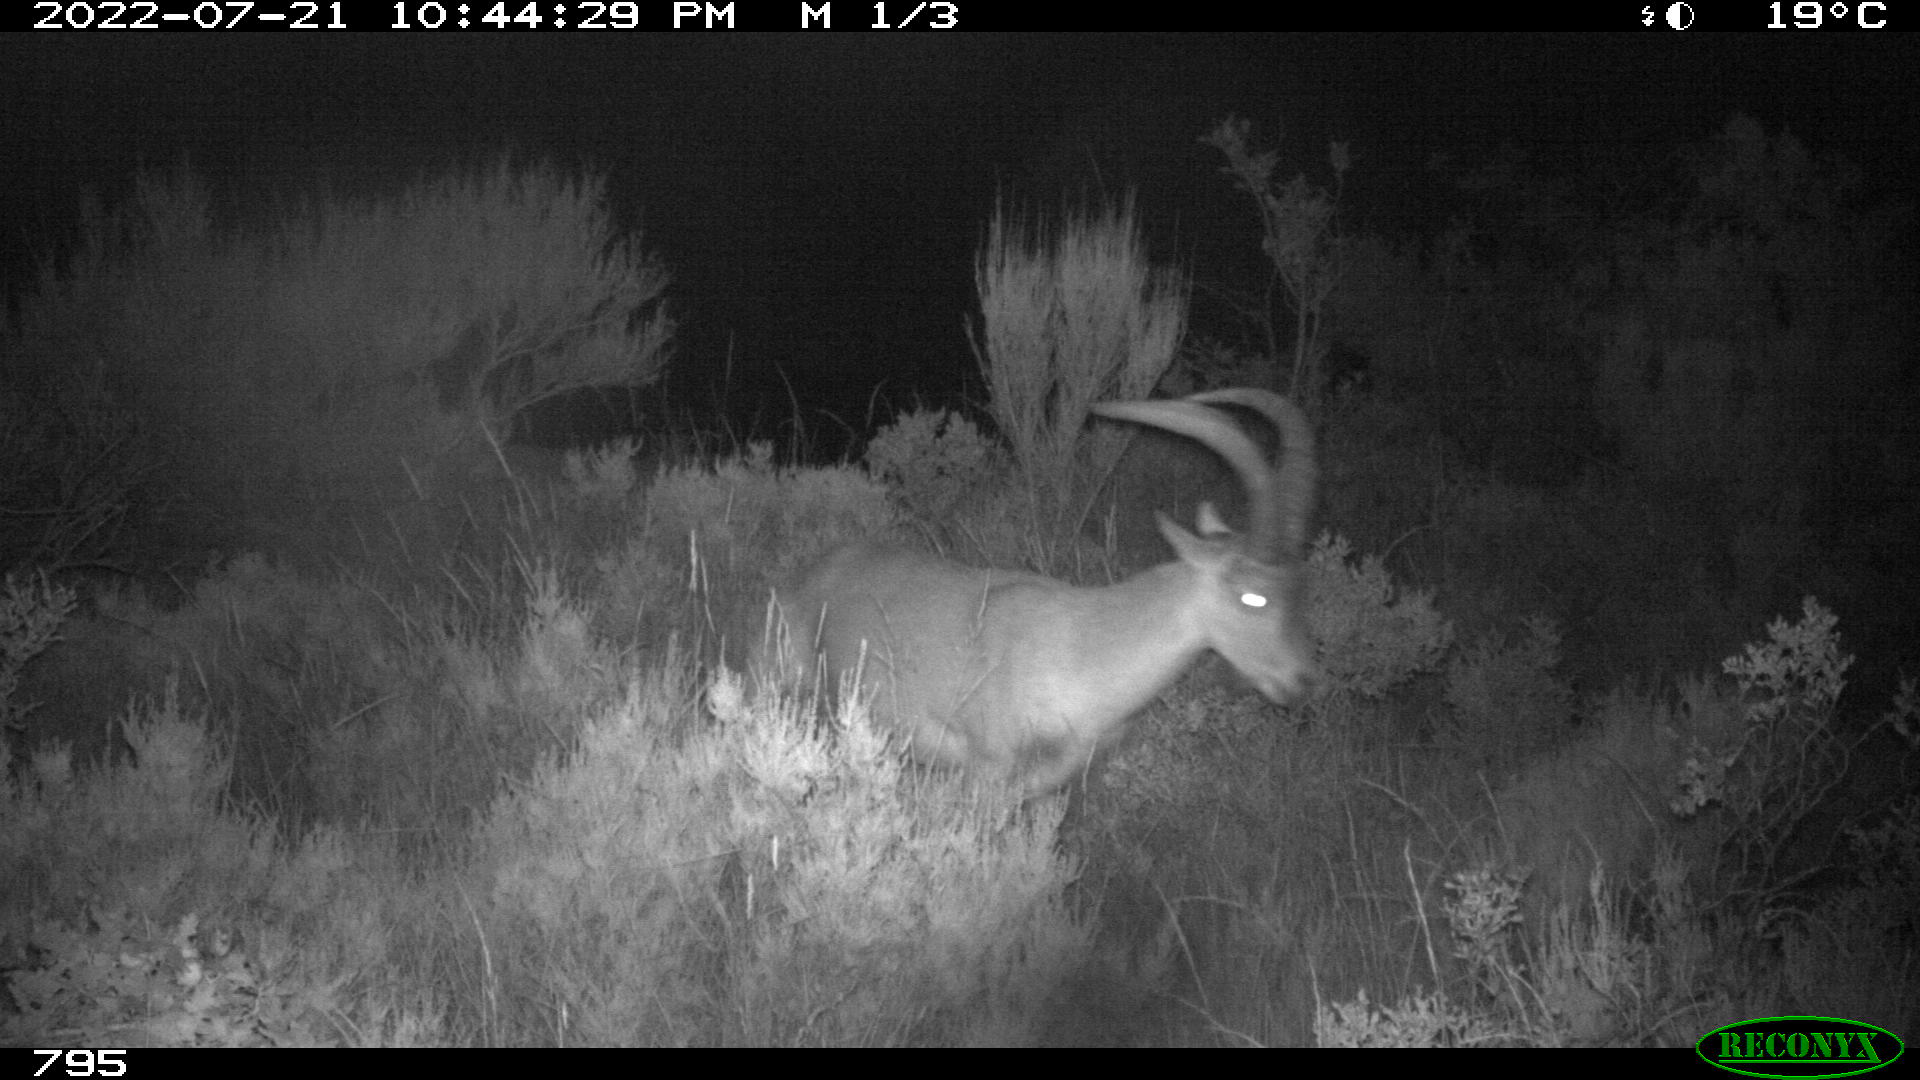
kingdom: Animalia
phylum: Chordata
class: Mammalia
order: Artiodactyla
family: Bovidae
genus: Capra
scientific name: Capra pyrenaica
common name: Spanish ibex
